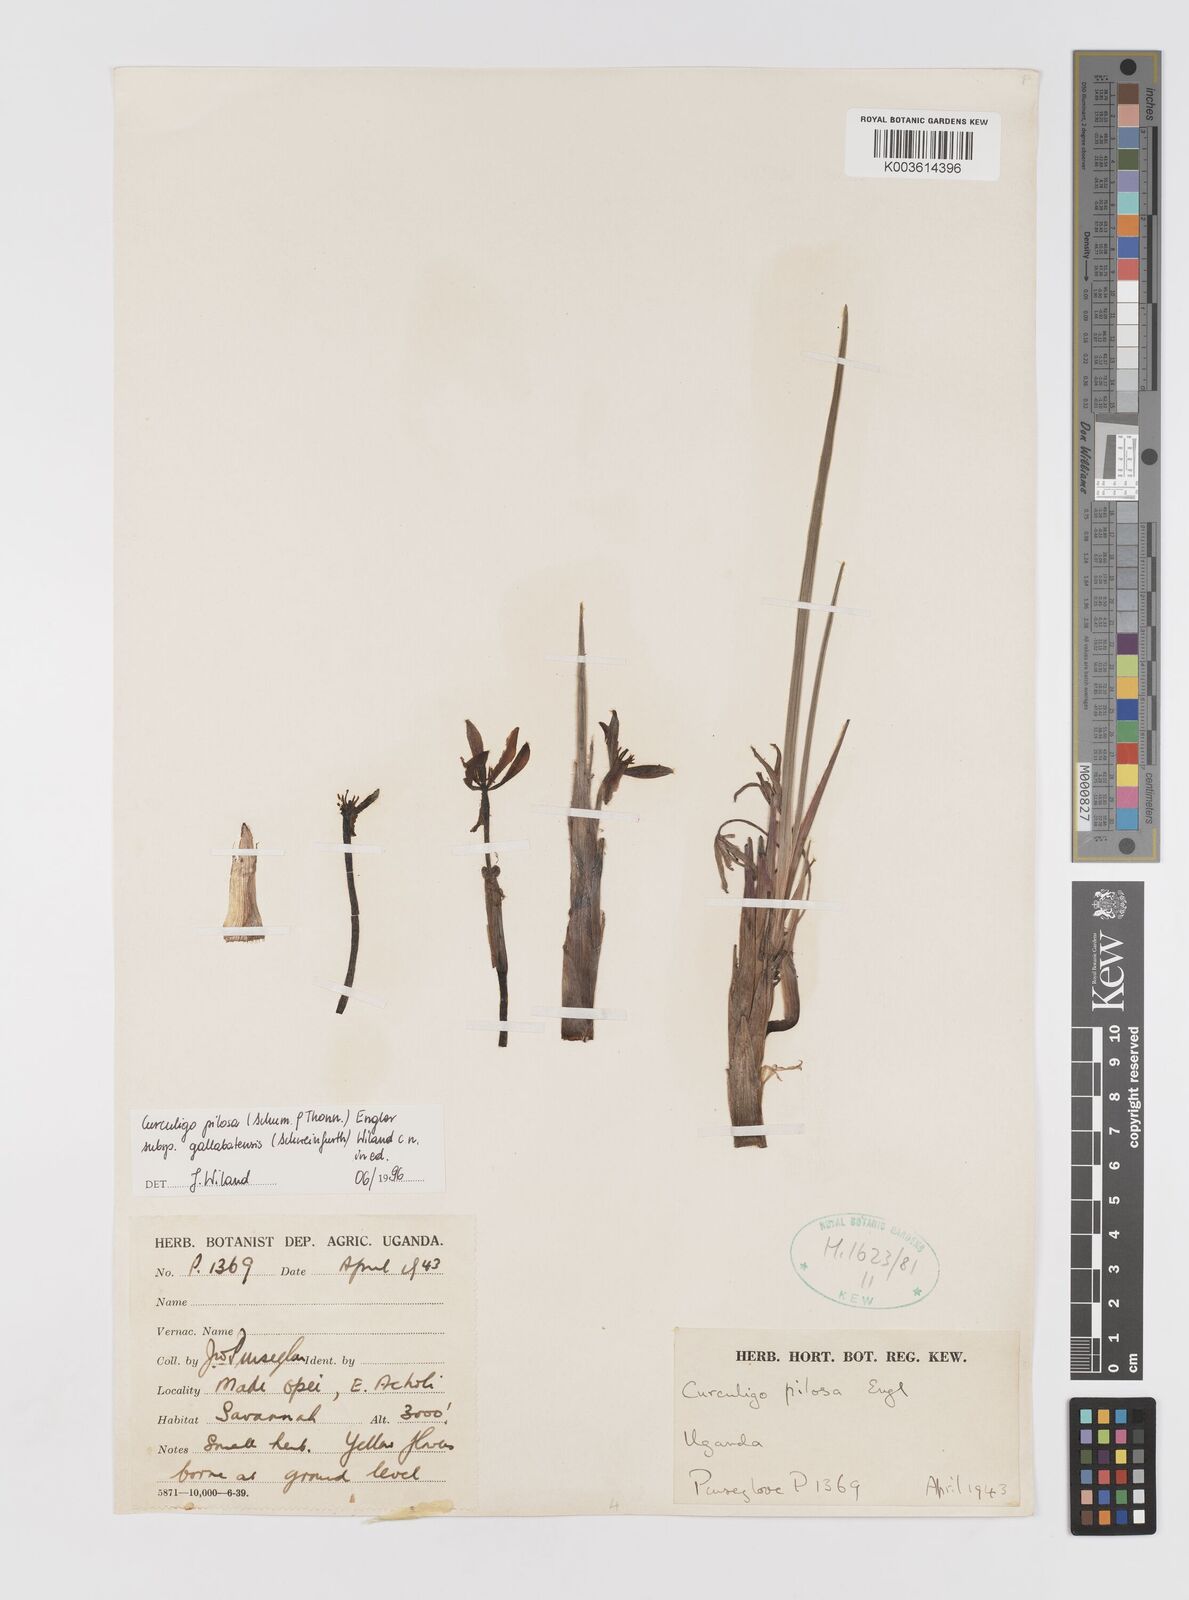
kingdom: Plantae
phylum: Tracheophyta
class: Liliopsida
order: Asparagales
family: Hypoxidaceae
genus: Curculigo
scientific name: Curculigo pilosa
